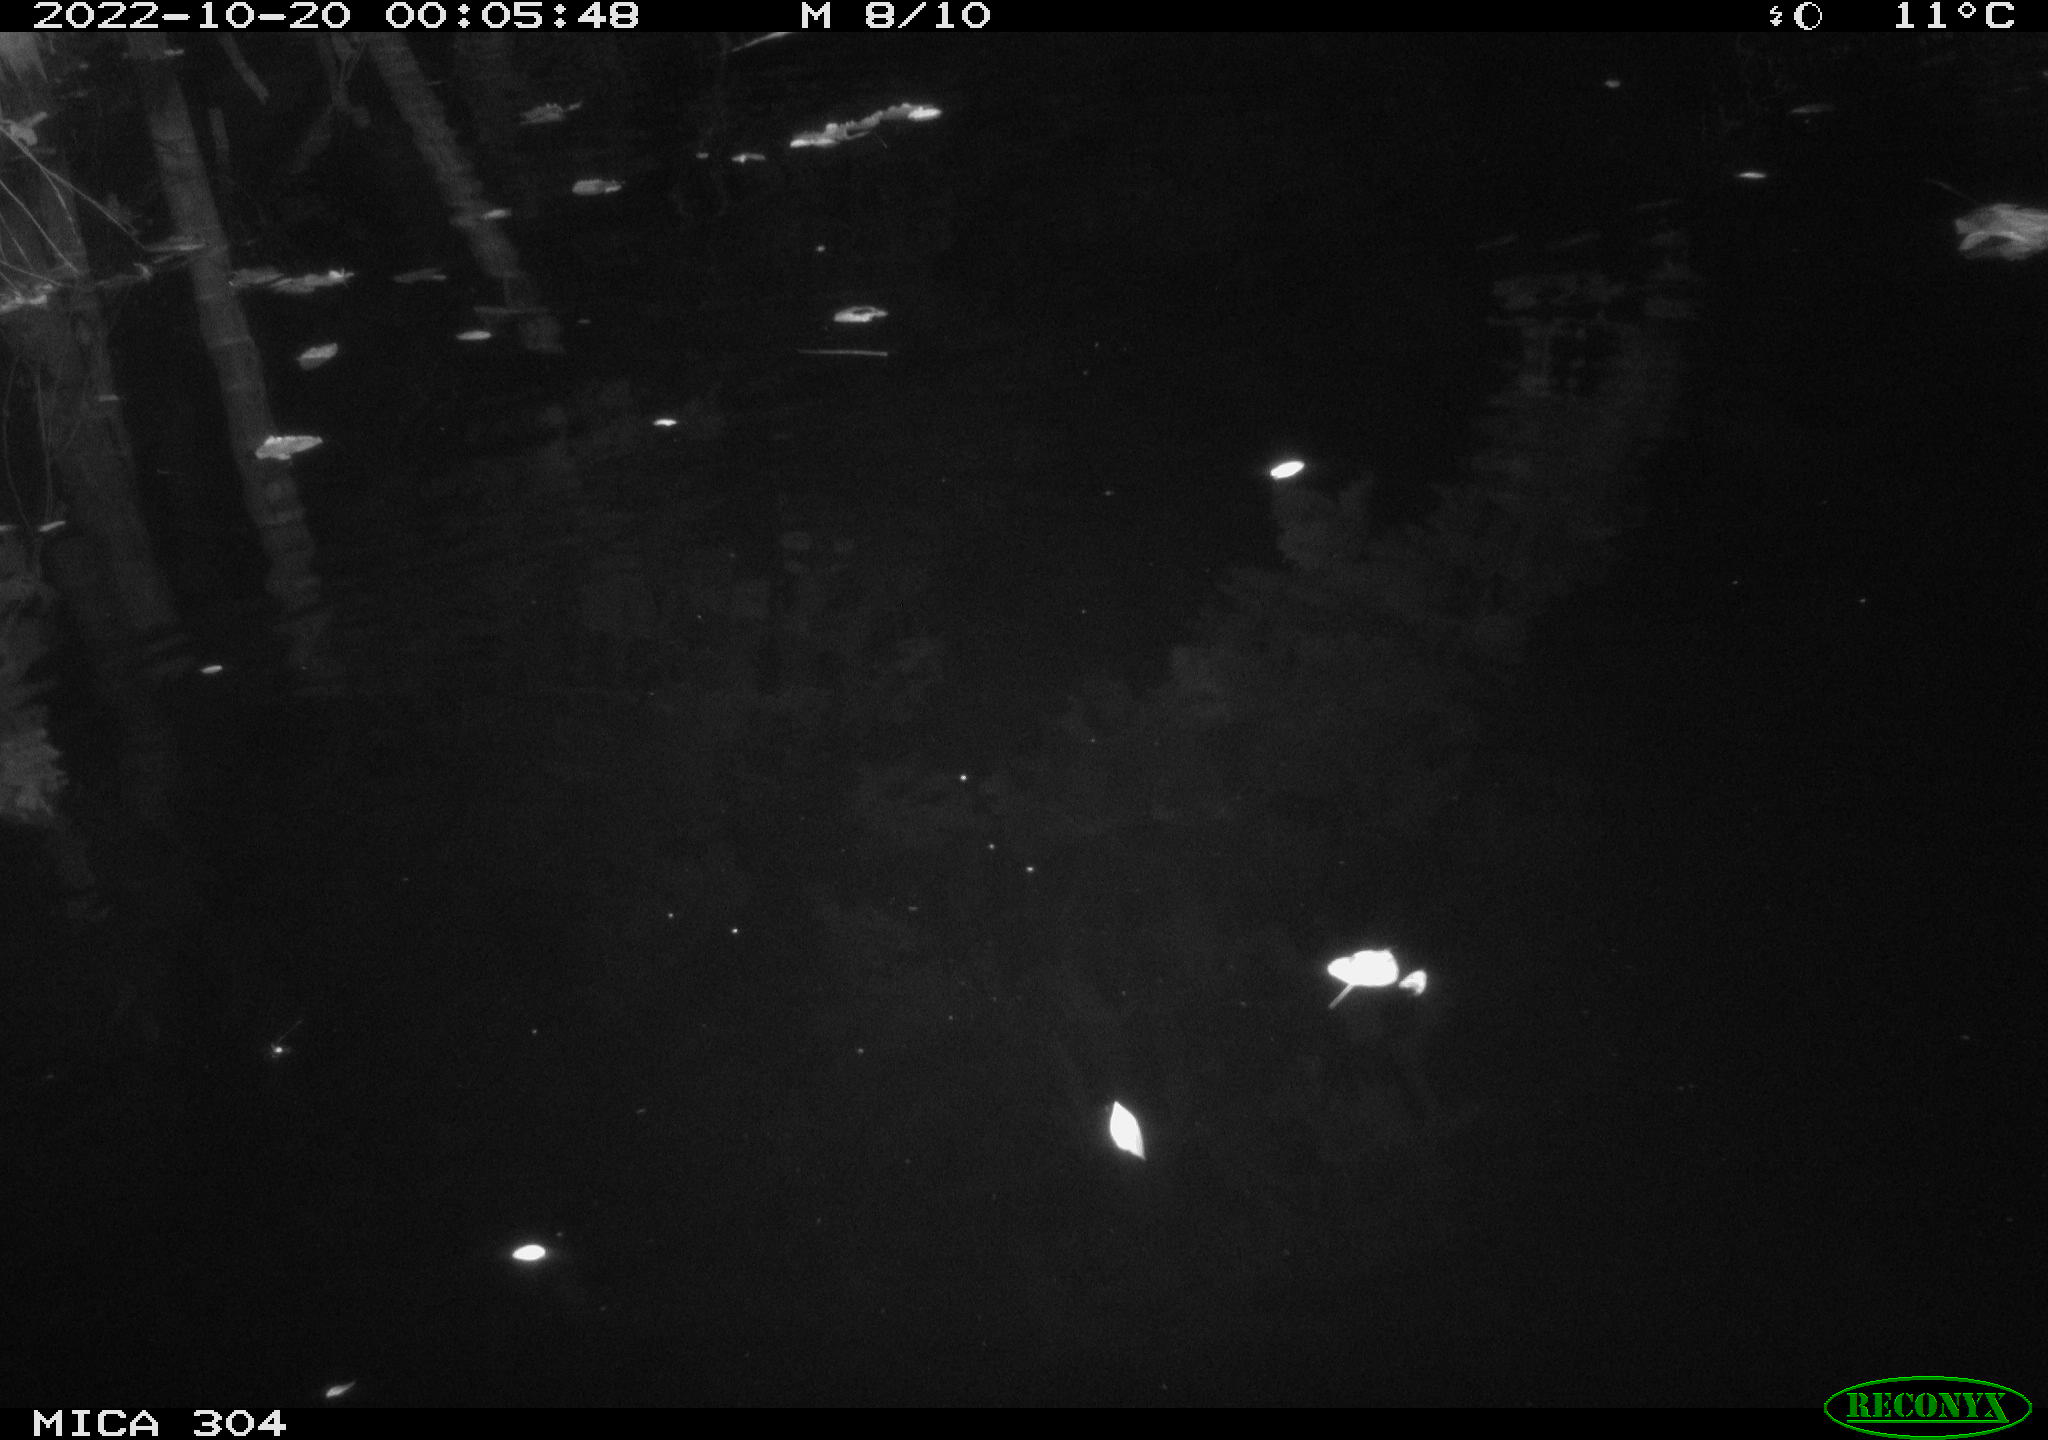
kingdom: Animalia
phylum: Chordata
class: Mammalia
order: Rodentia
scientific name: Rodentia
